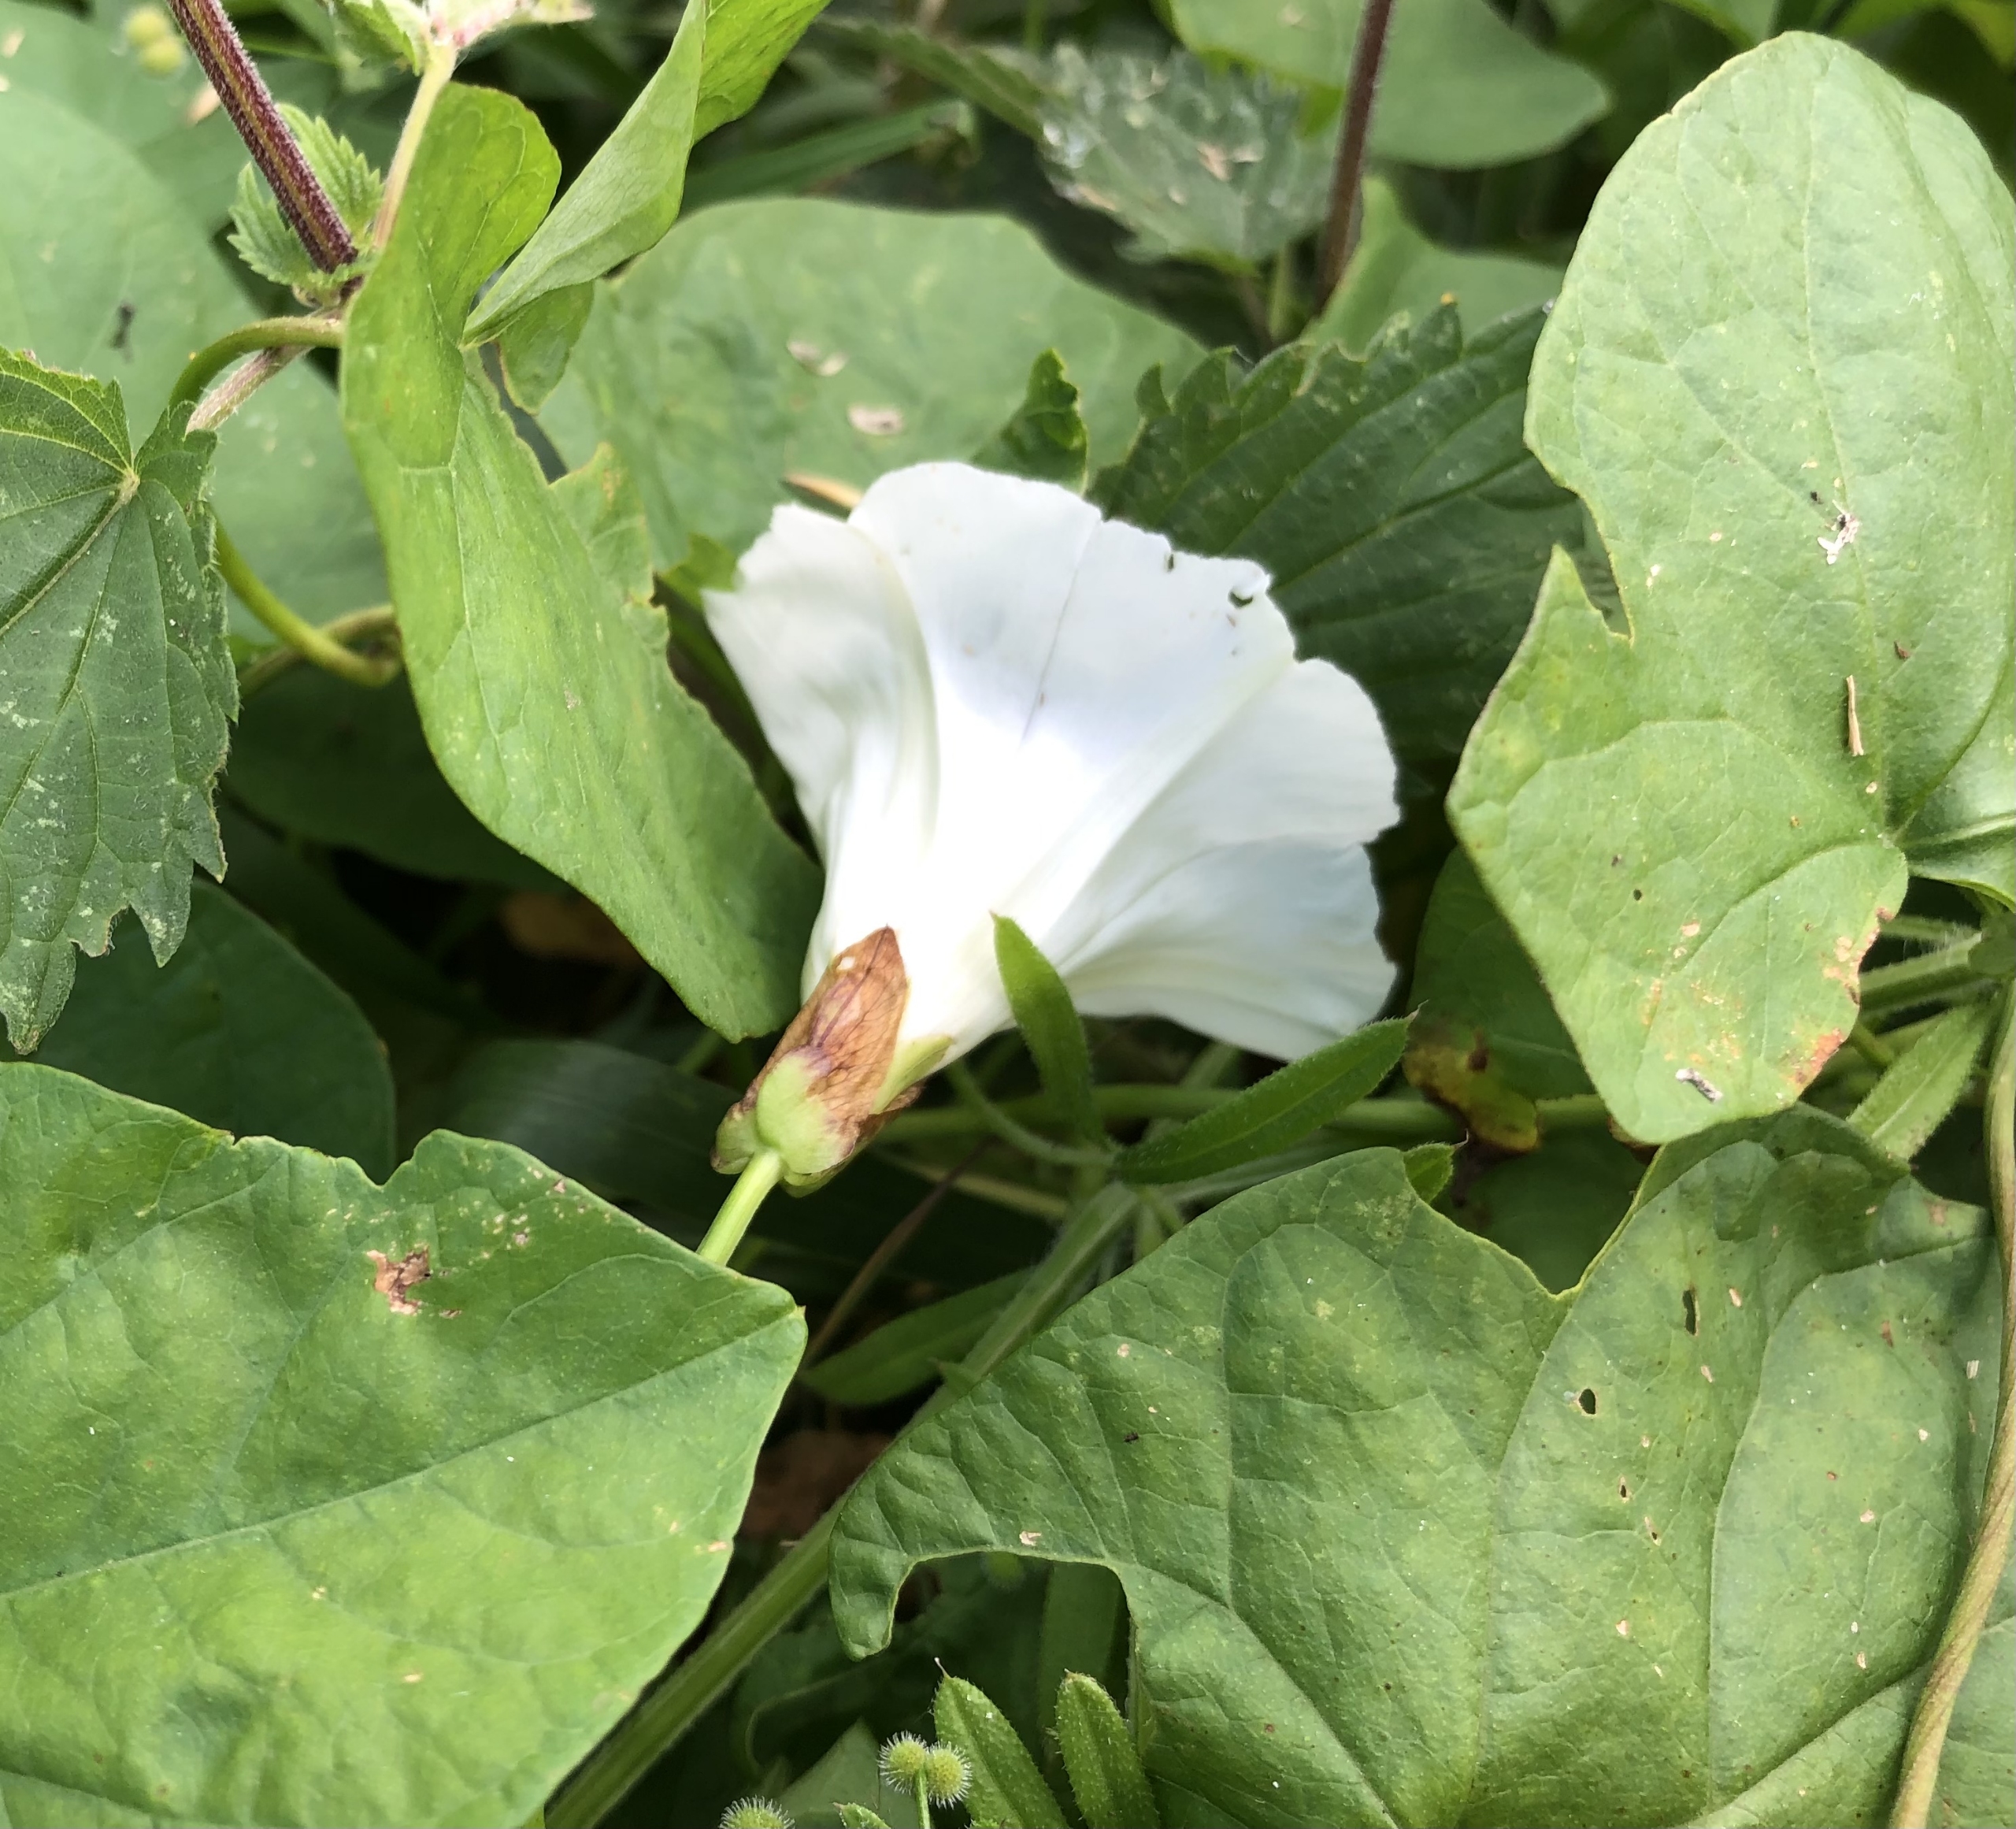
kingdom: Plantae
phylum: Tracheophyta
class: Magnoliopsida
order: Solanales
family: Convolvulaceae
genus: Calystegia
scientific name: Calystegia sepium
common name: Gærde-snerle
